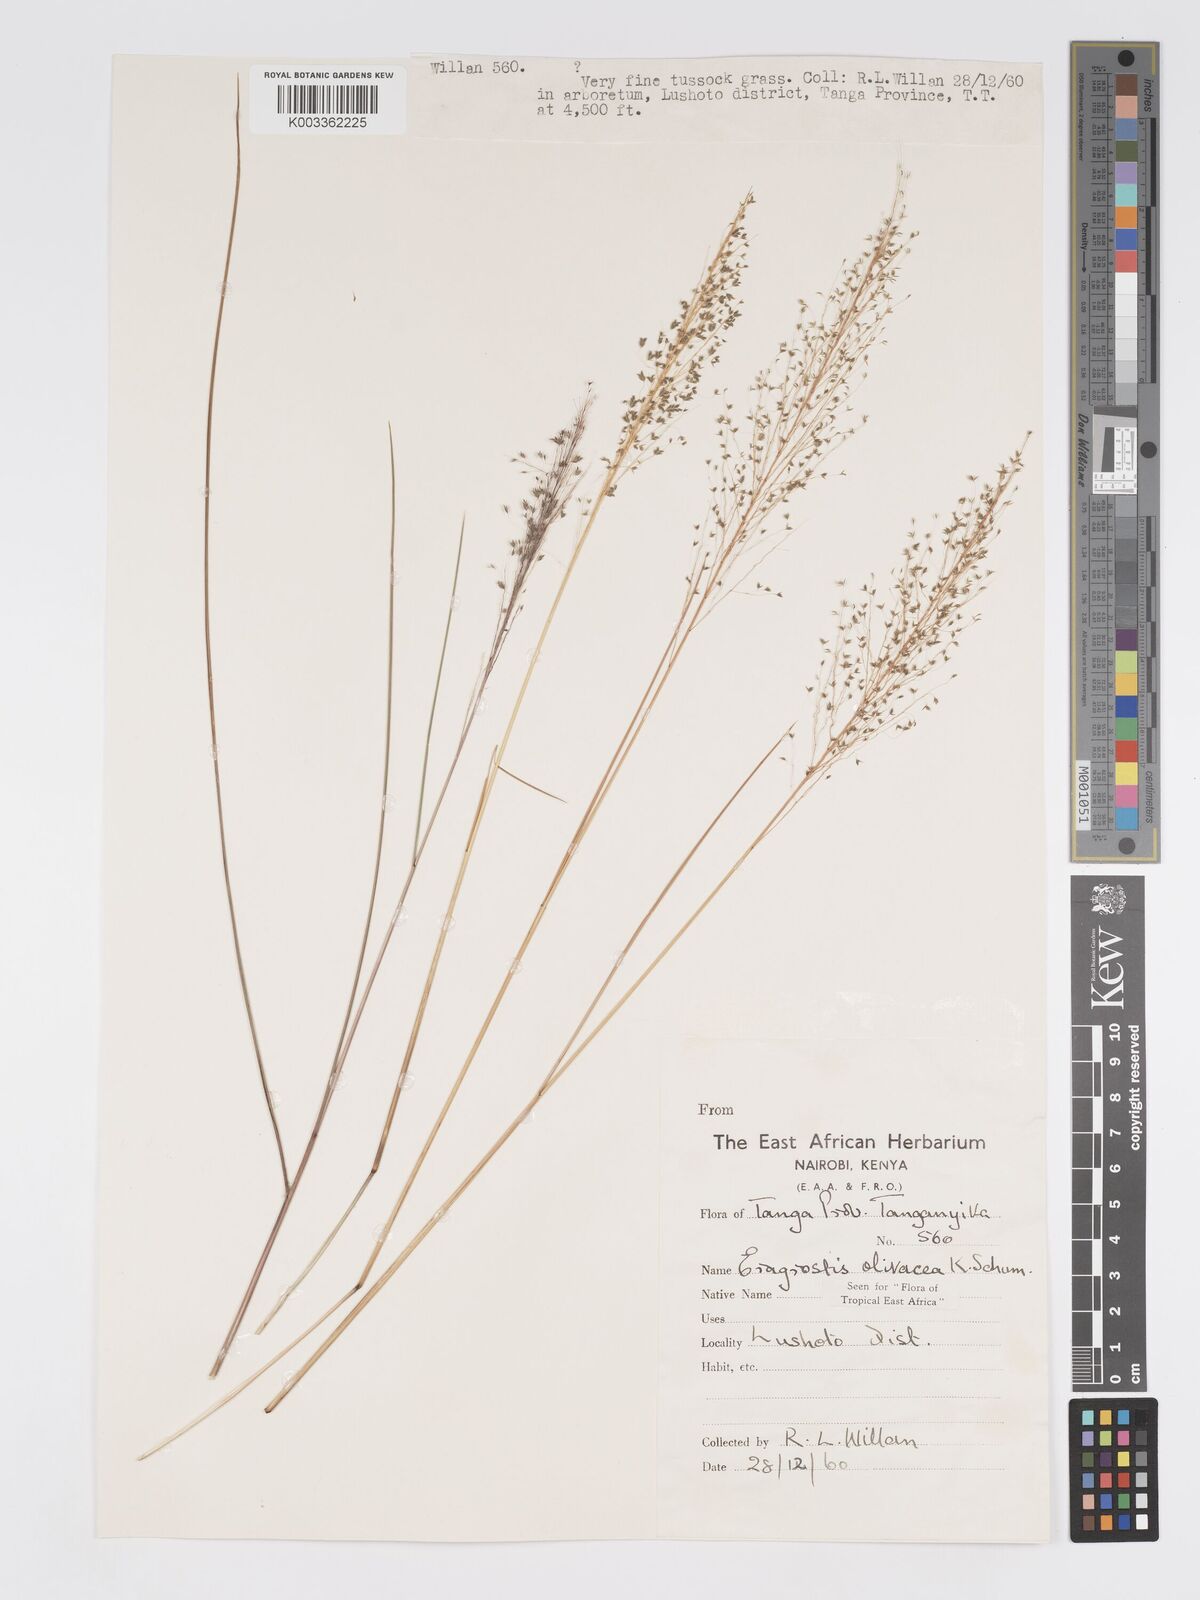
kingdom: Plantae
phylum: Tracheophyta
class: Liliopsida
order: Poales
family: Poaceae
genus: Eragrostis
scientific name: Eragrostis olivacea
